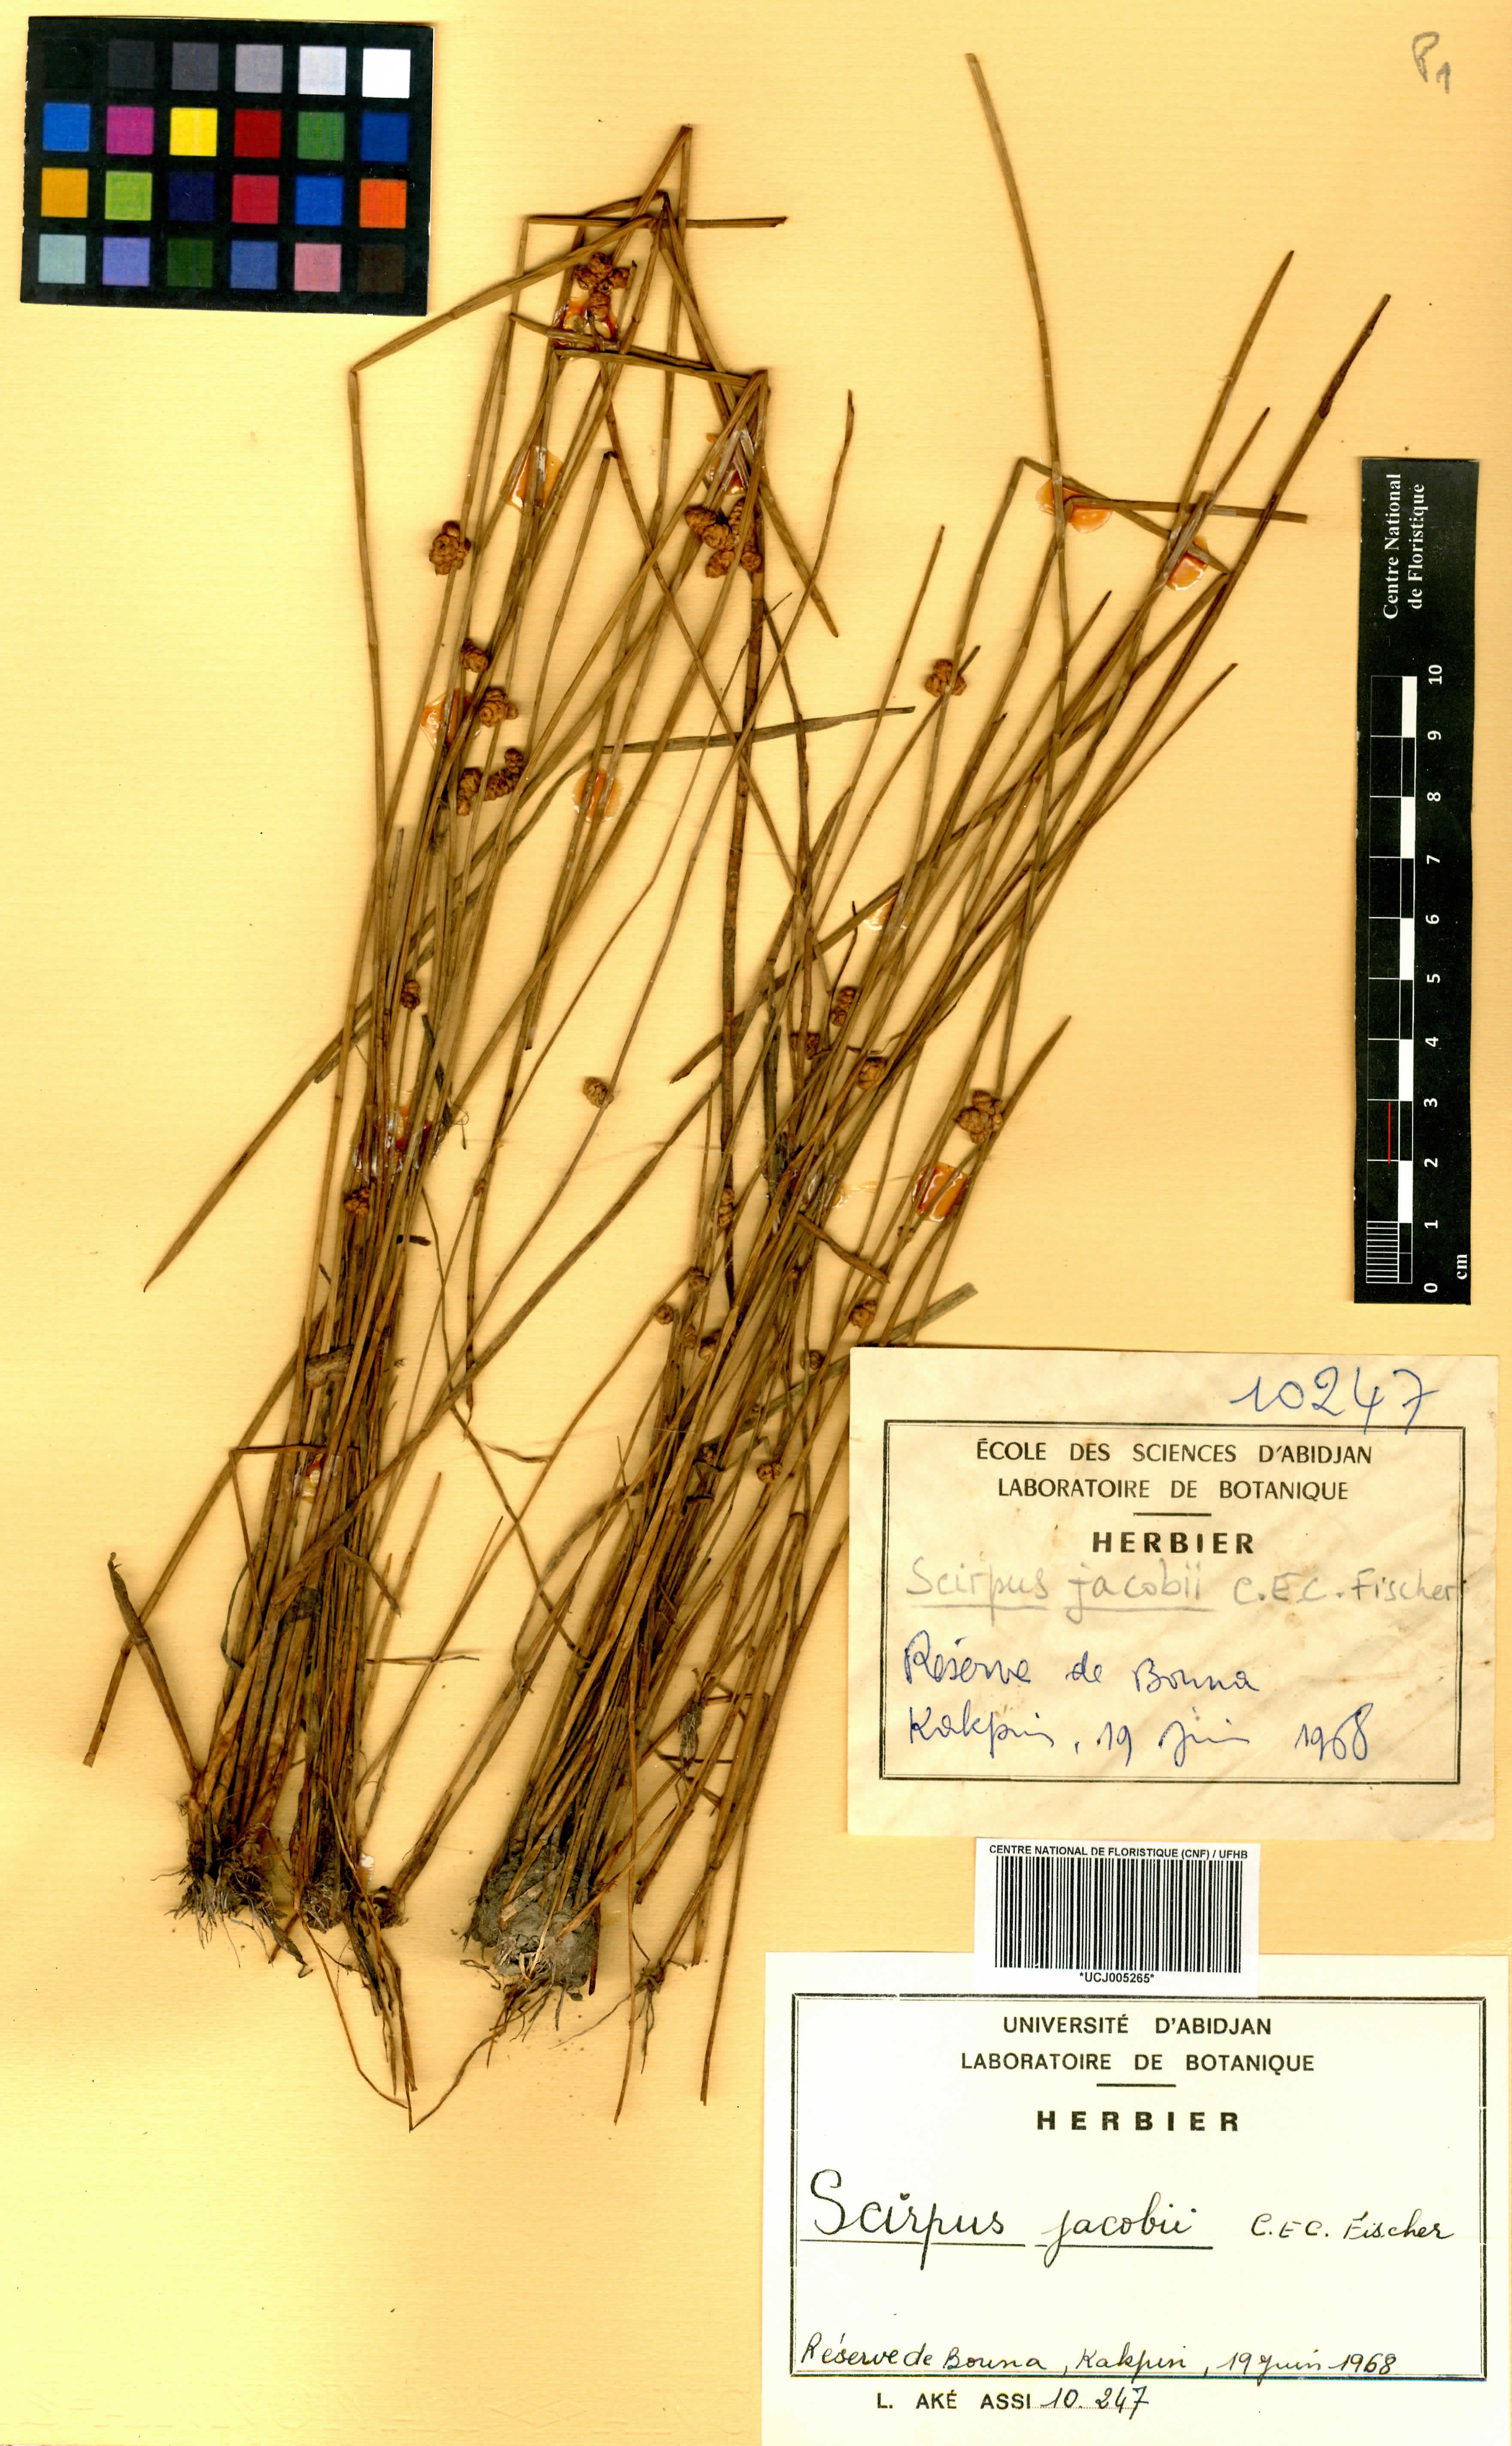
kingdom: Plantae
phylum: Tracheophyta
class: Liliopsida
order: Poales
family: Cyperaceae
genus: Schoenoplectiella
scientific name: Schoenoplectiella senegalensis
